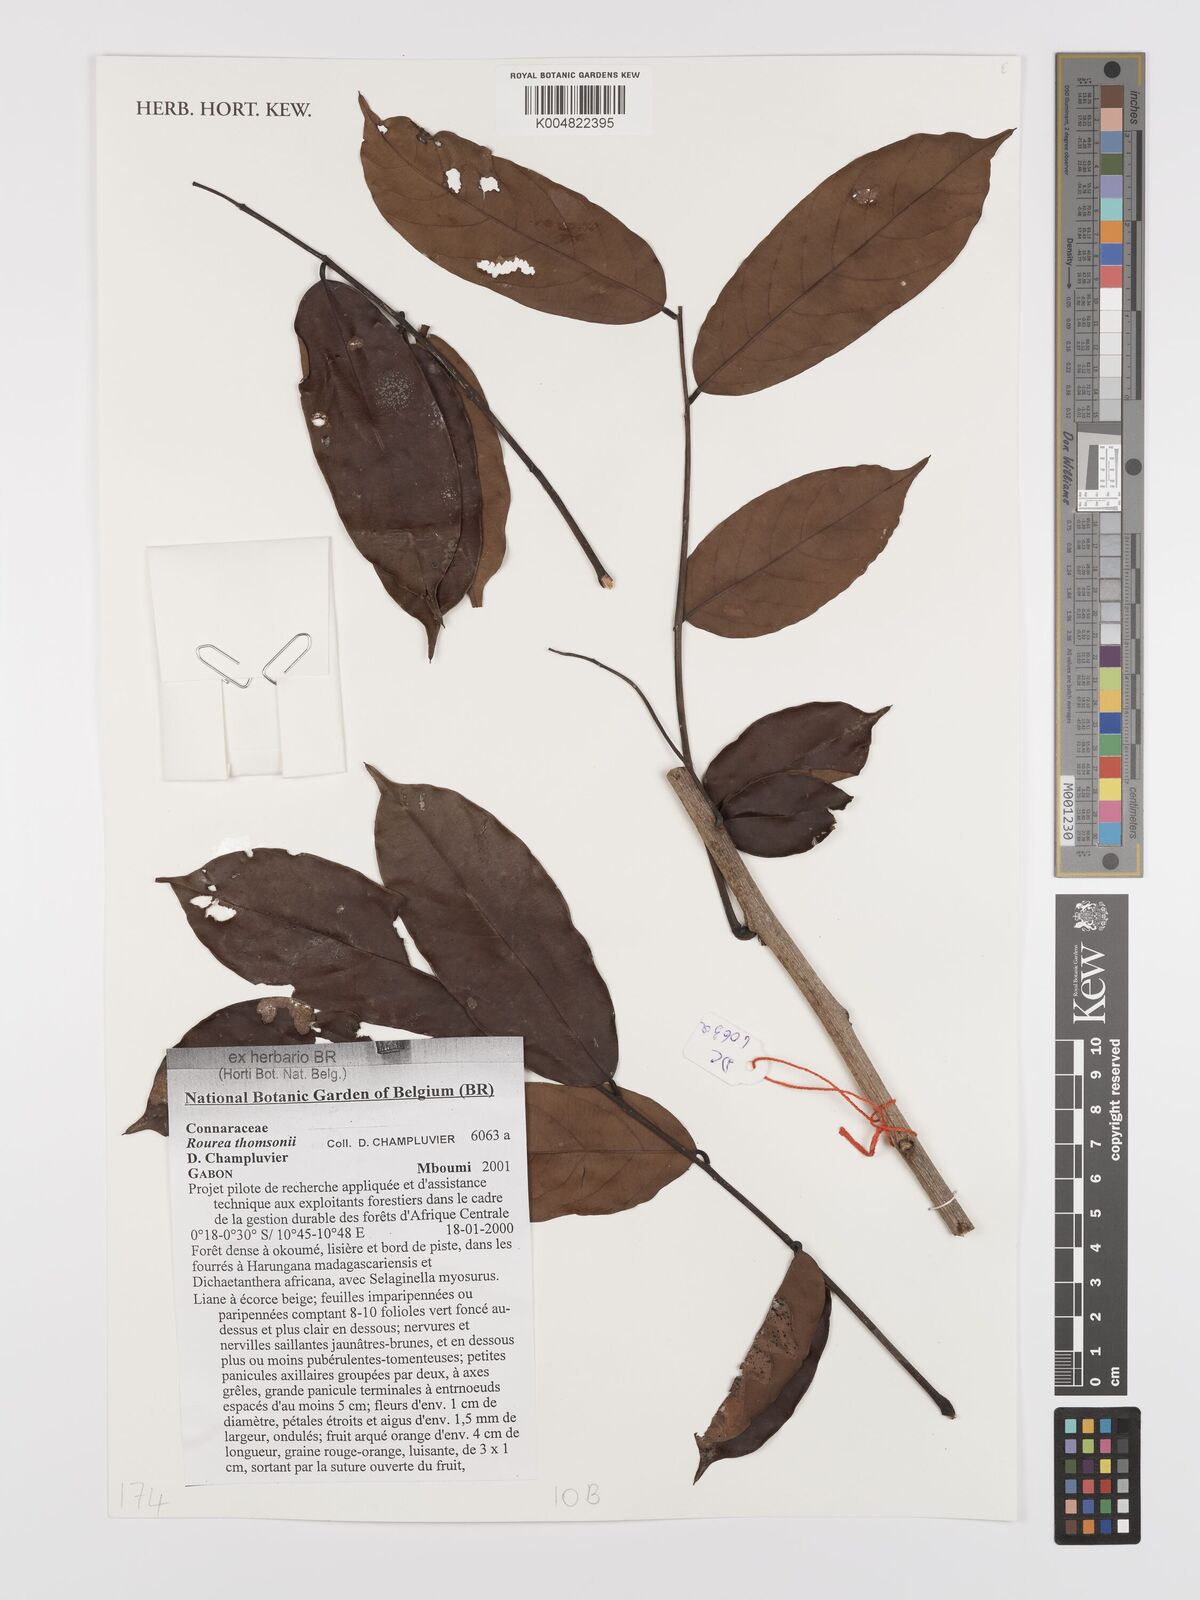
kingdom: Plantae
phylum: Tracheophyta
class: Magnoliopsida
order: Oxalidales
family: Connaraceae
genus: Rourea
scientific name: Rourea pubescens
